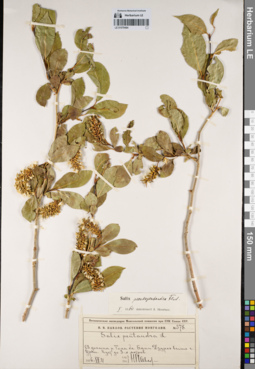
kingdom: Plantae
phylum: Tracheophyta
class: Magnoliopsida
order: Malpighiales
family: Salicaceae
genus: Salix
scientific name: Salix pseudopentandra
